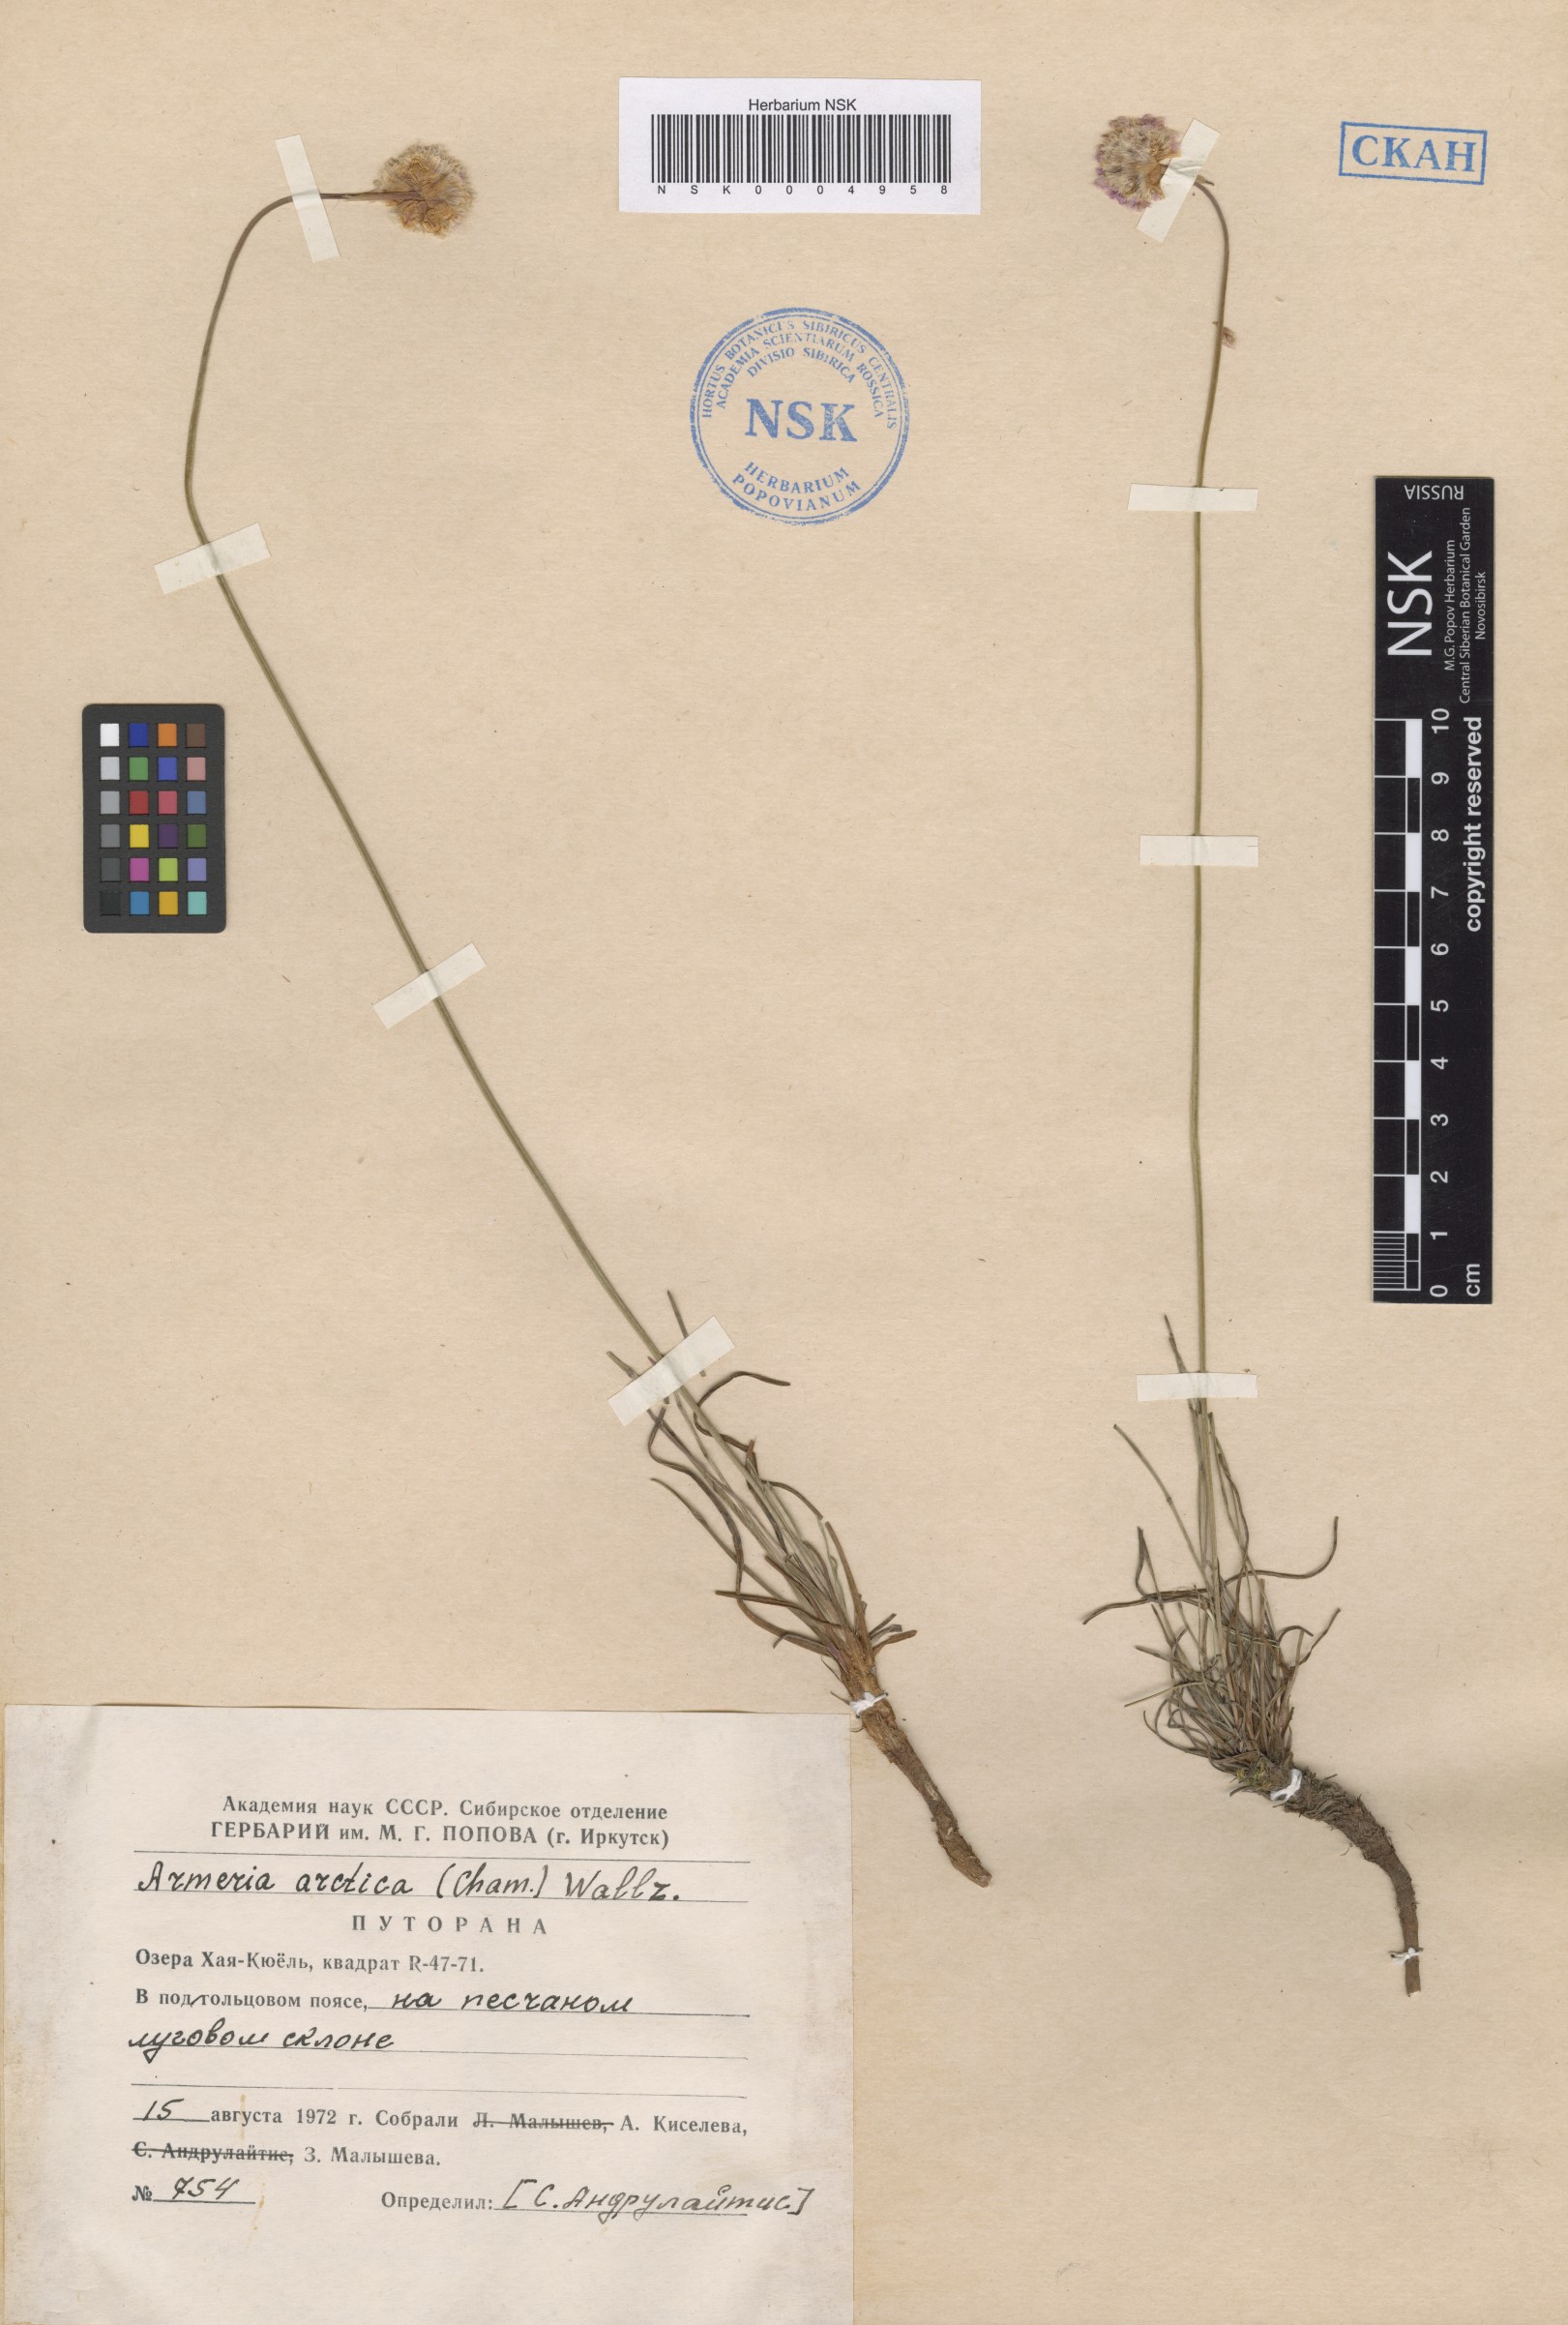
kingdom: Plantae
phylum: Tracheophyta
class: Magnoliopsida
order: Caryophyllales
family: Plumbaginaceae
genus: Armeria
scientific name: Armeria maritima
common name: Thrift
